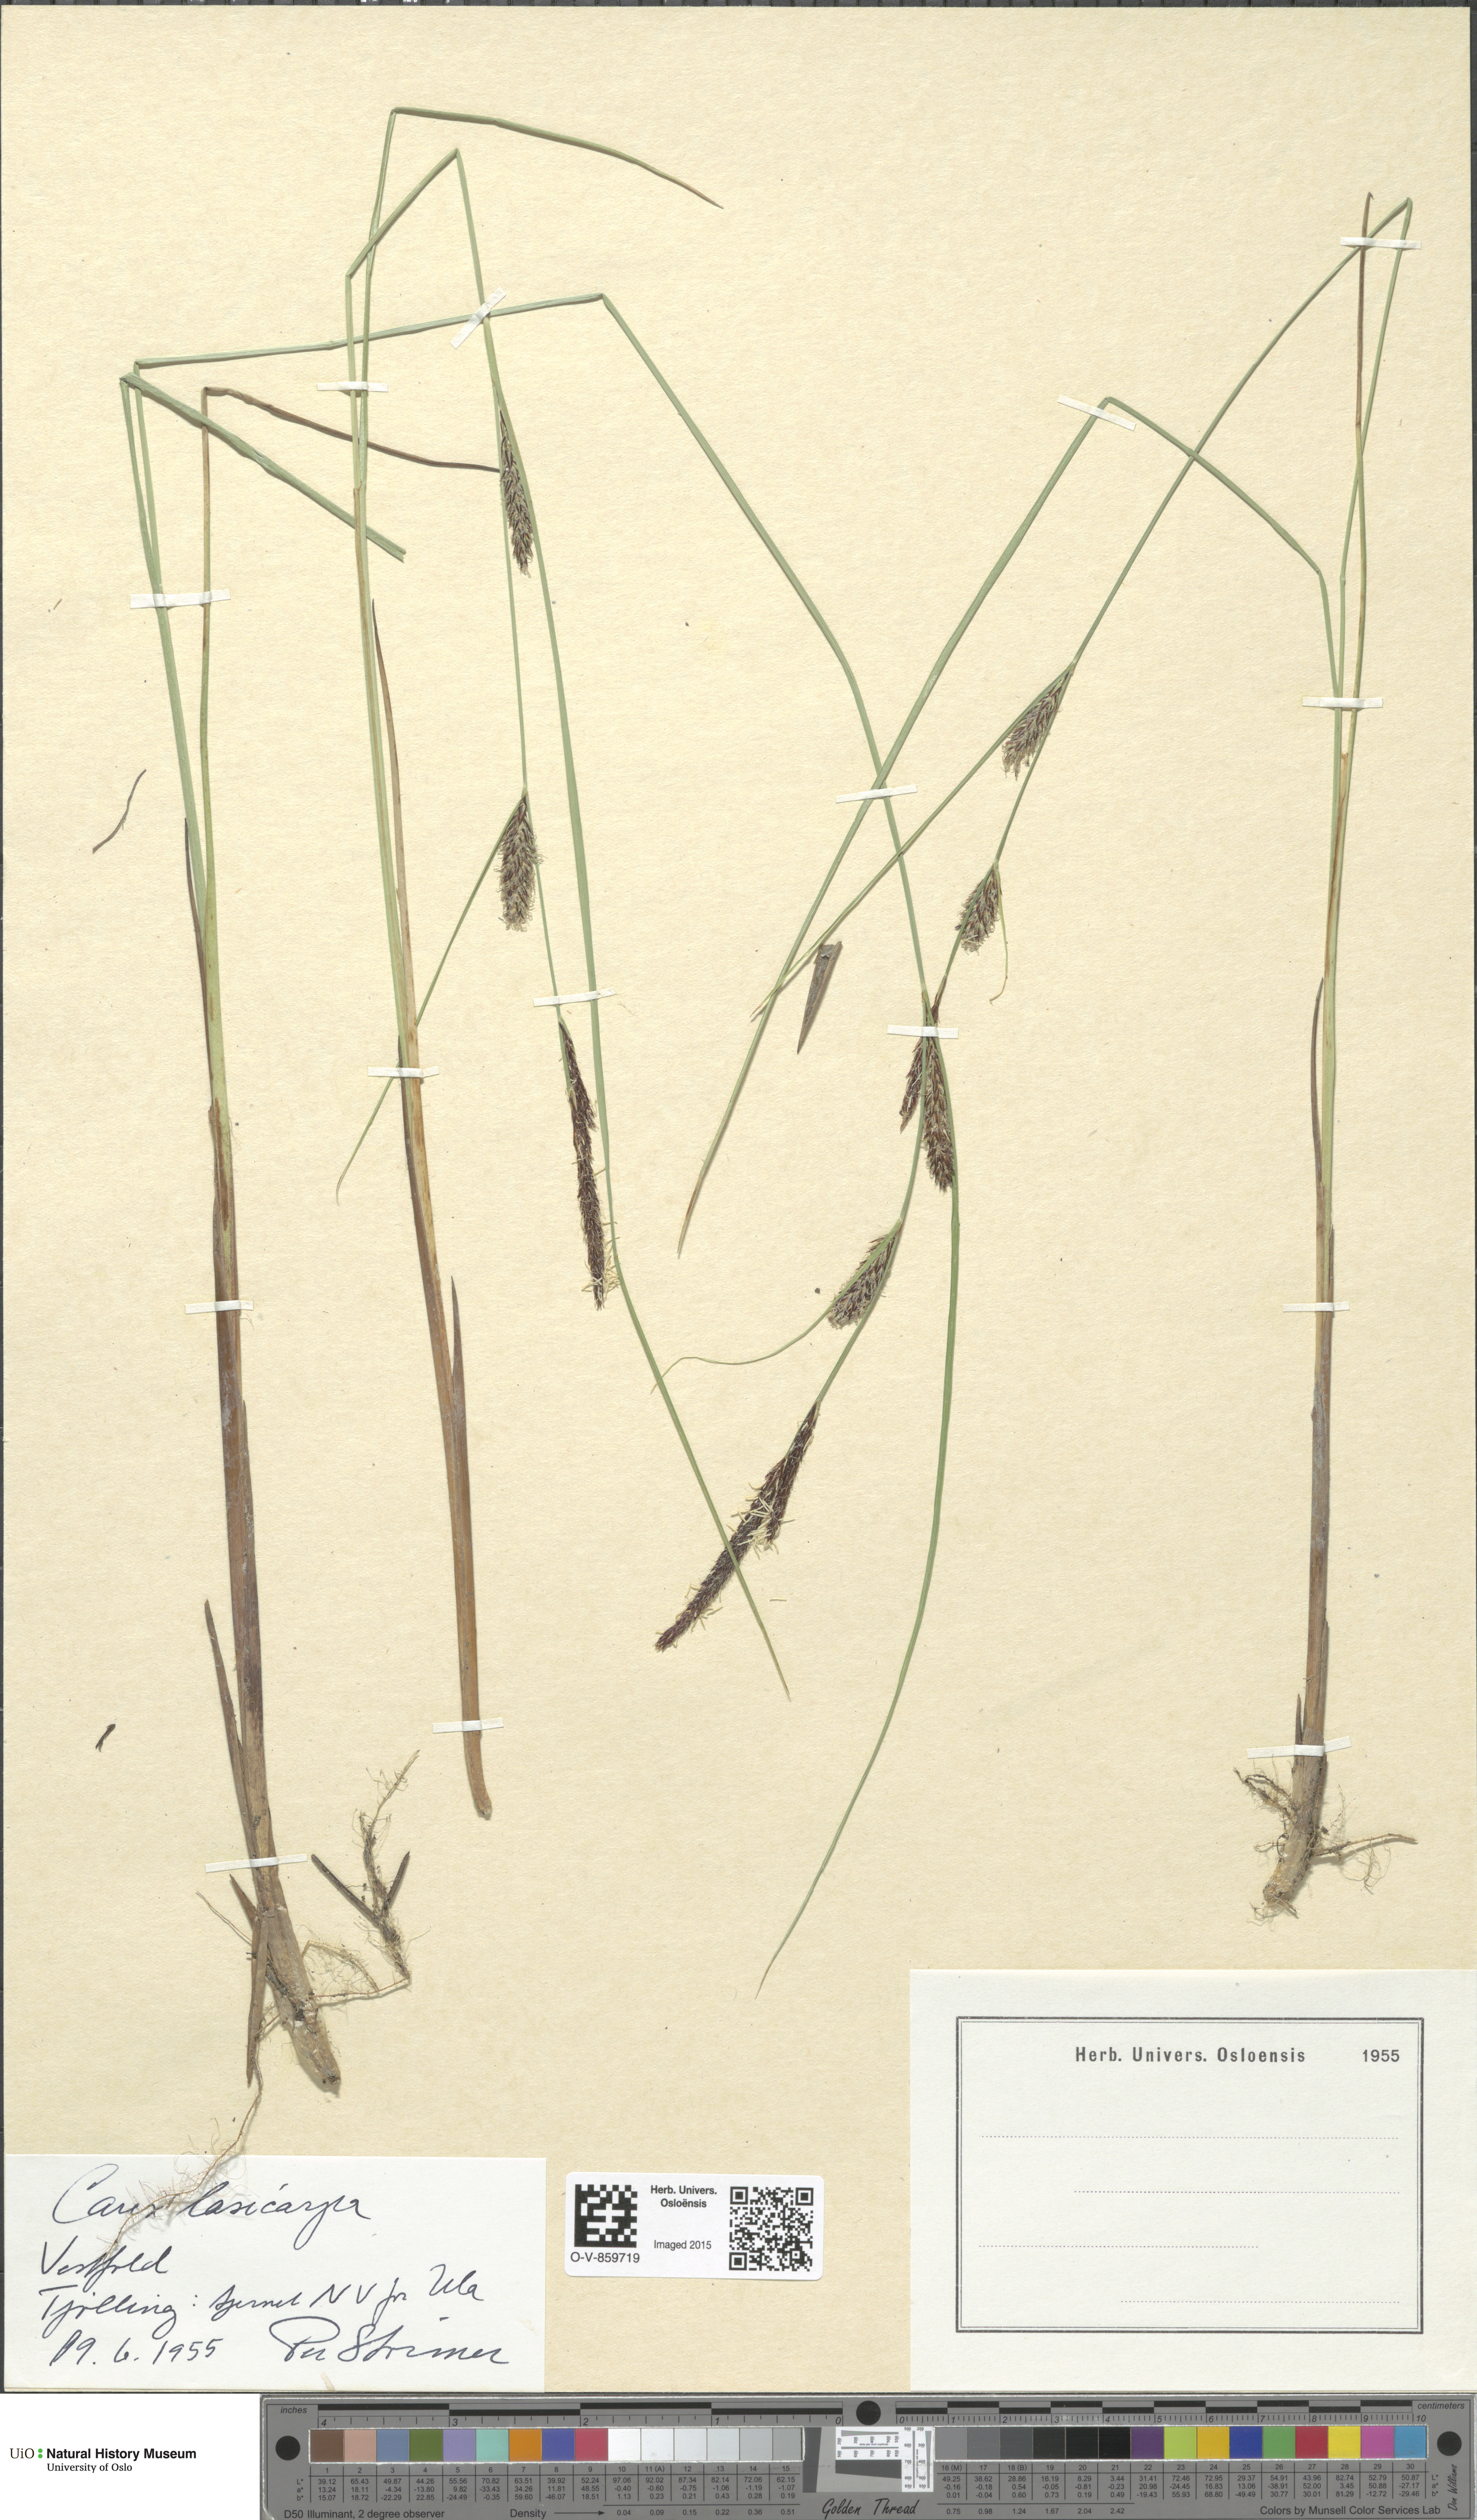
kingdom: Plantae
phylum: Tracheophyta
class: Liliopsida
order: Poales
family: Cyperaceae
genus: Carex
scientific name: Carex lasiocarpa
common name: Slender sedge
